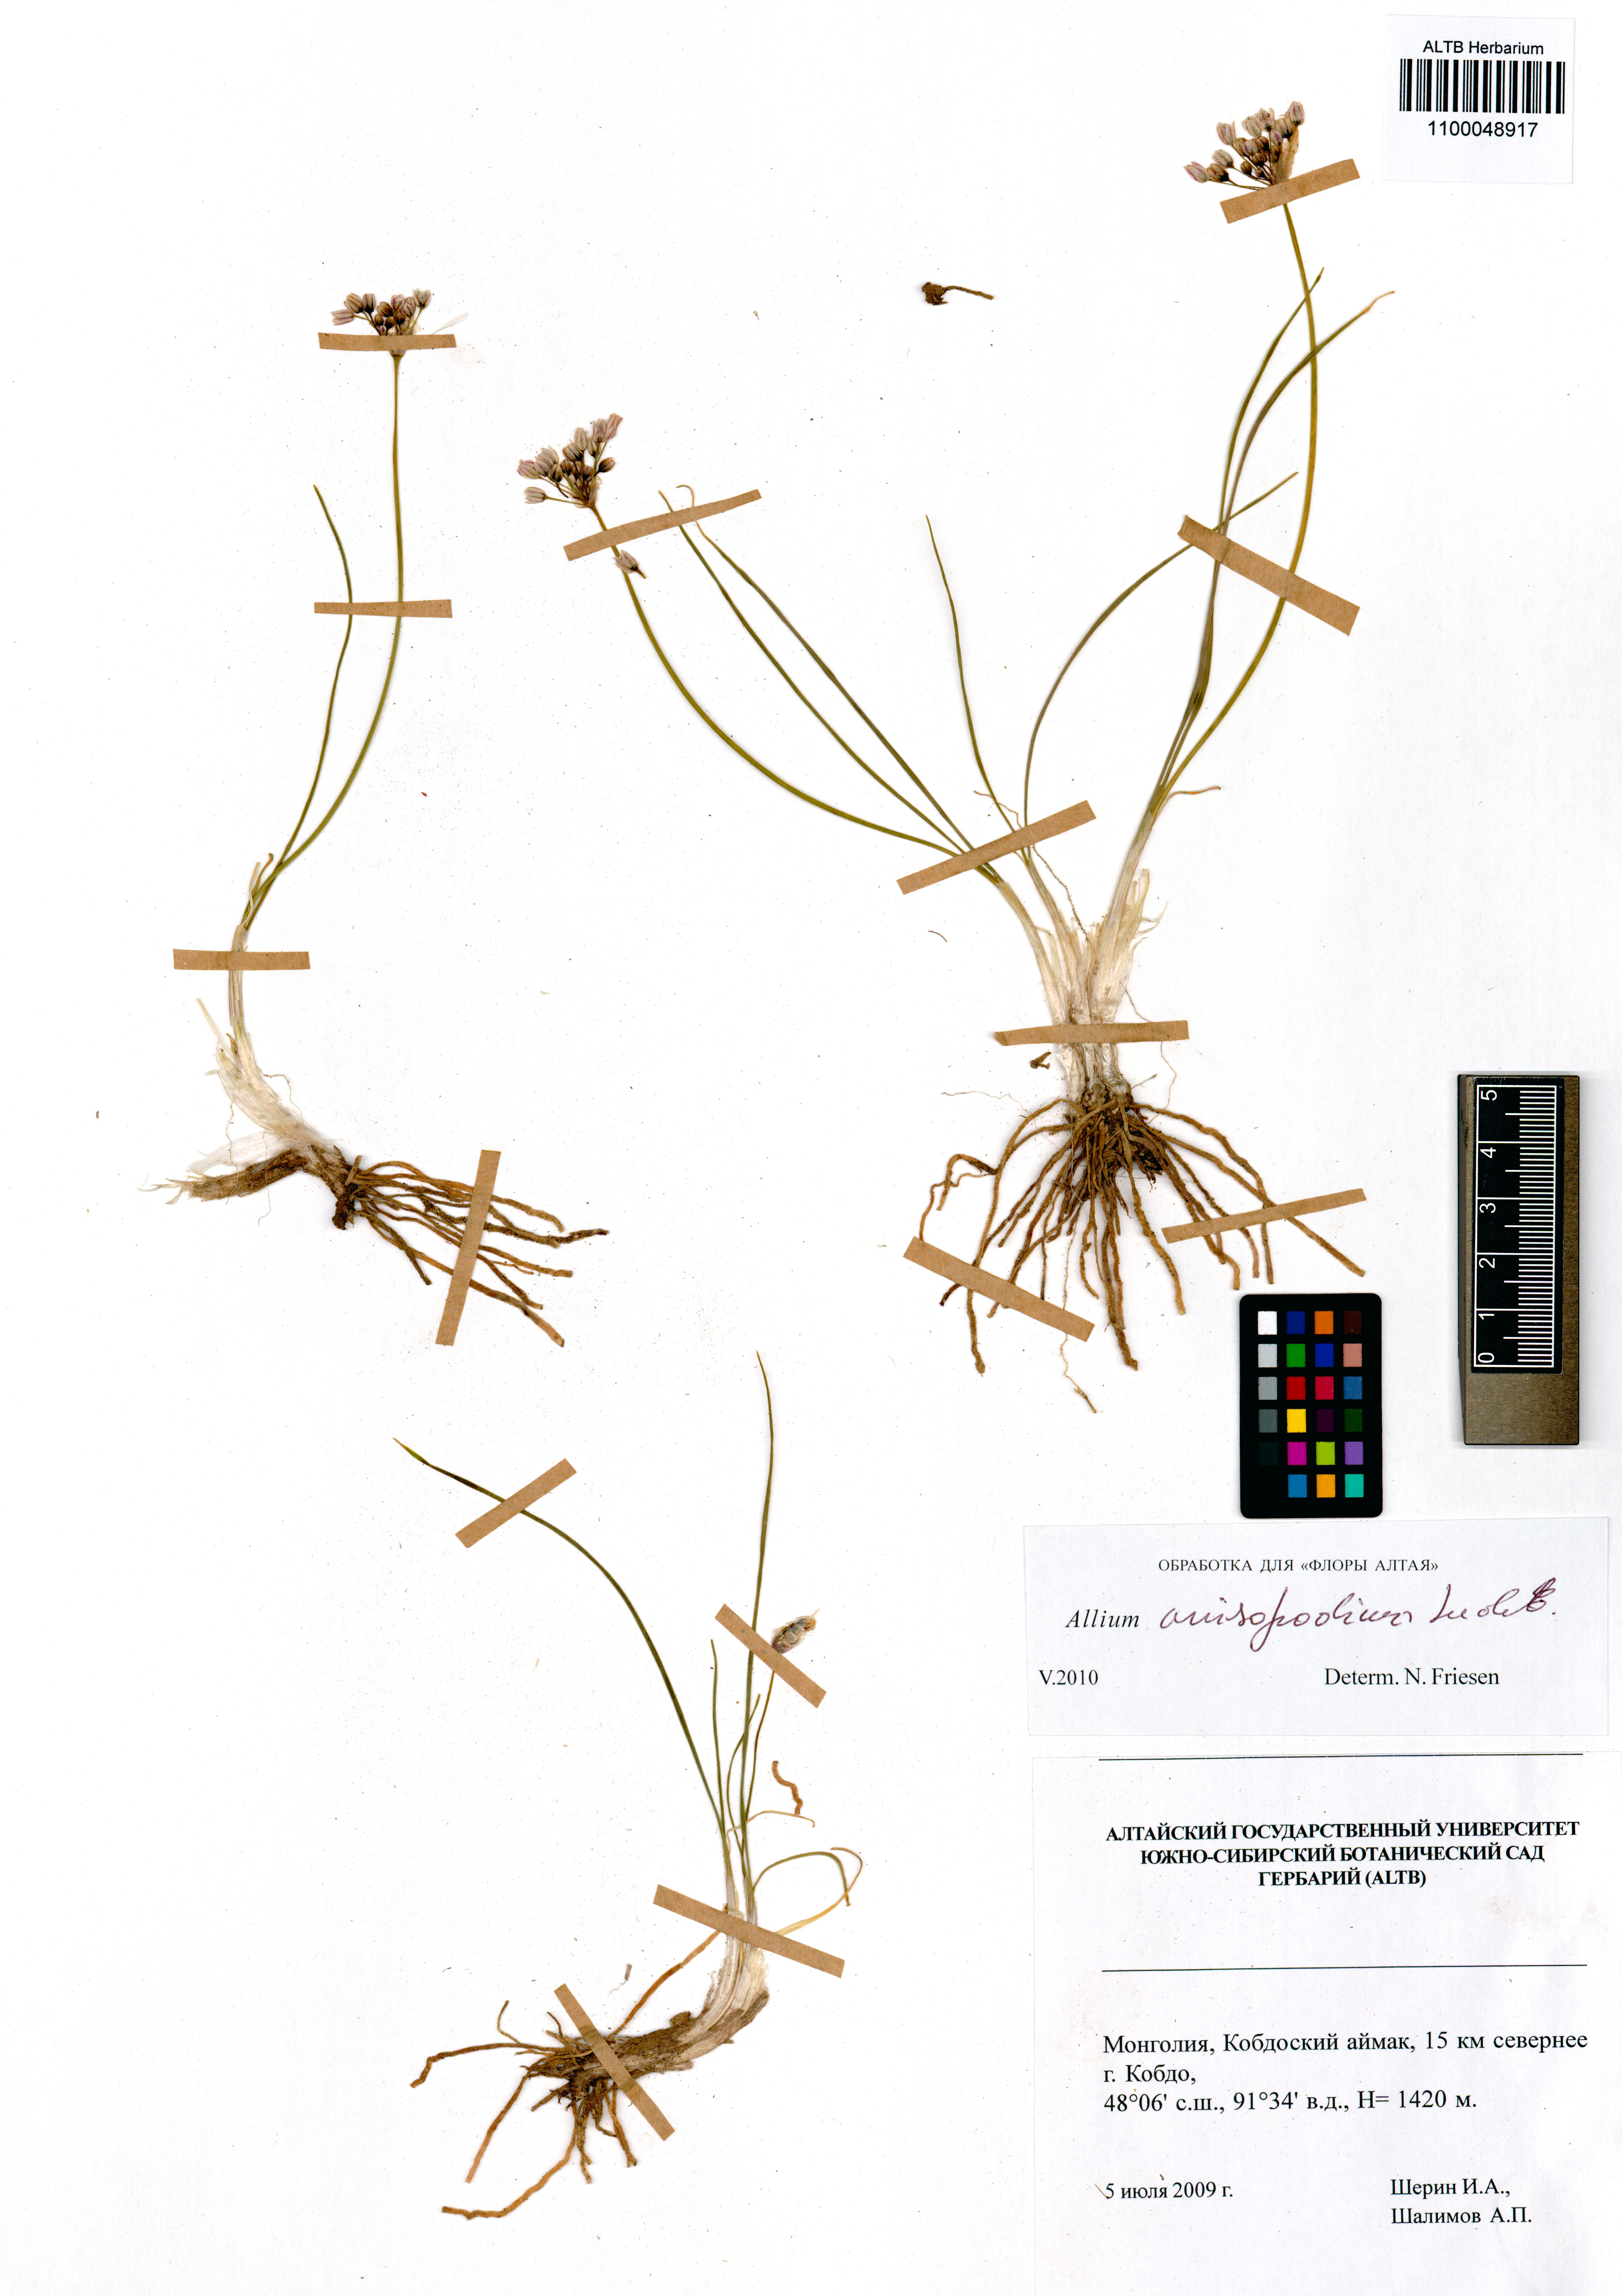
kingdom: Plantae
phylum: Tracheophyta
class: Liliopsida
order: Asparagales
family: Amaryllidaceae
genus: Allium
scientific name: Allium anisopodium
